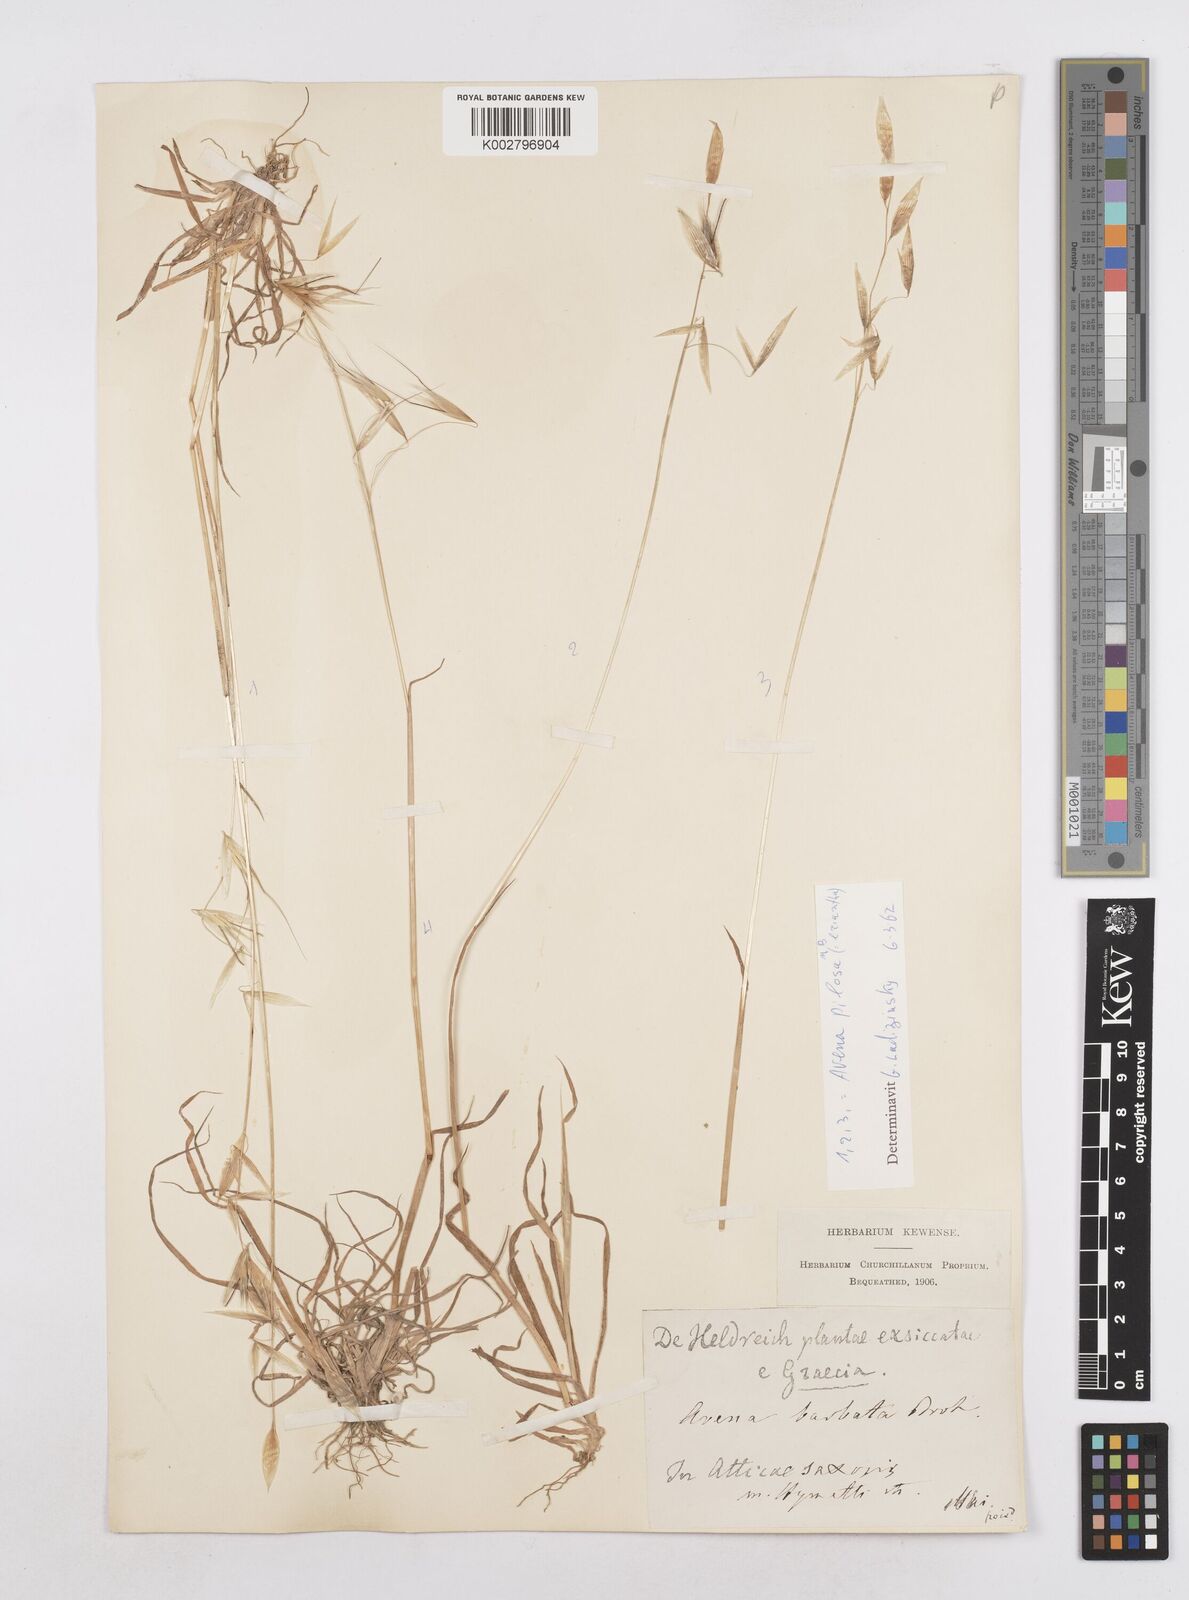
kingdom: Plantae
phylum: Tracheophyta
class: Liliopsida
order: Poales
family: Poaceae
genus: Avena
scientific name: Avena eriantha
